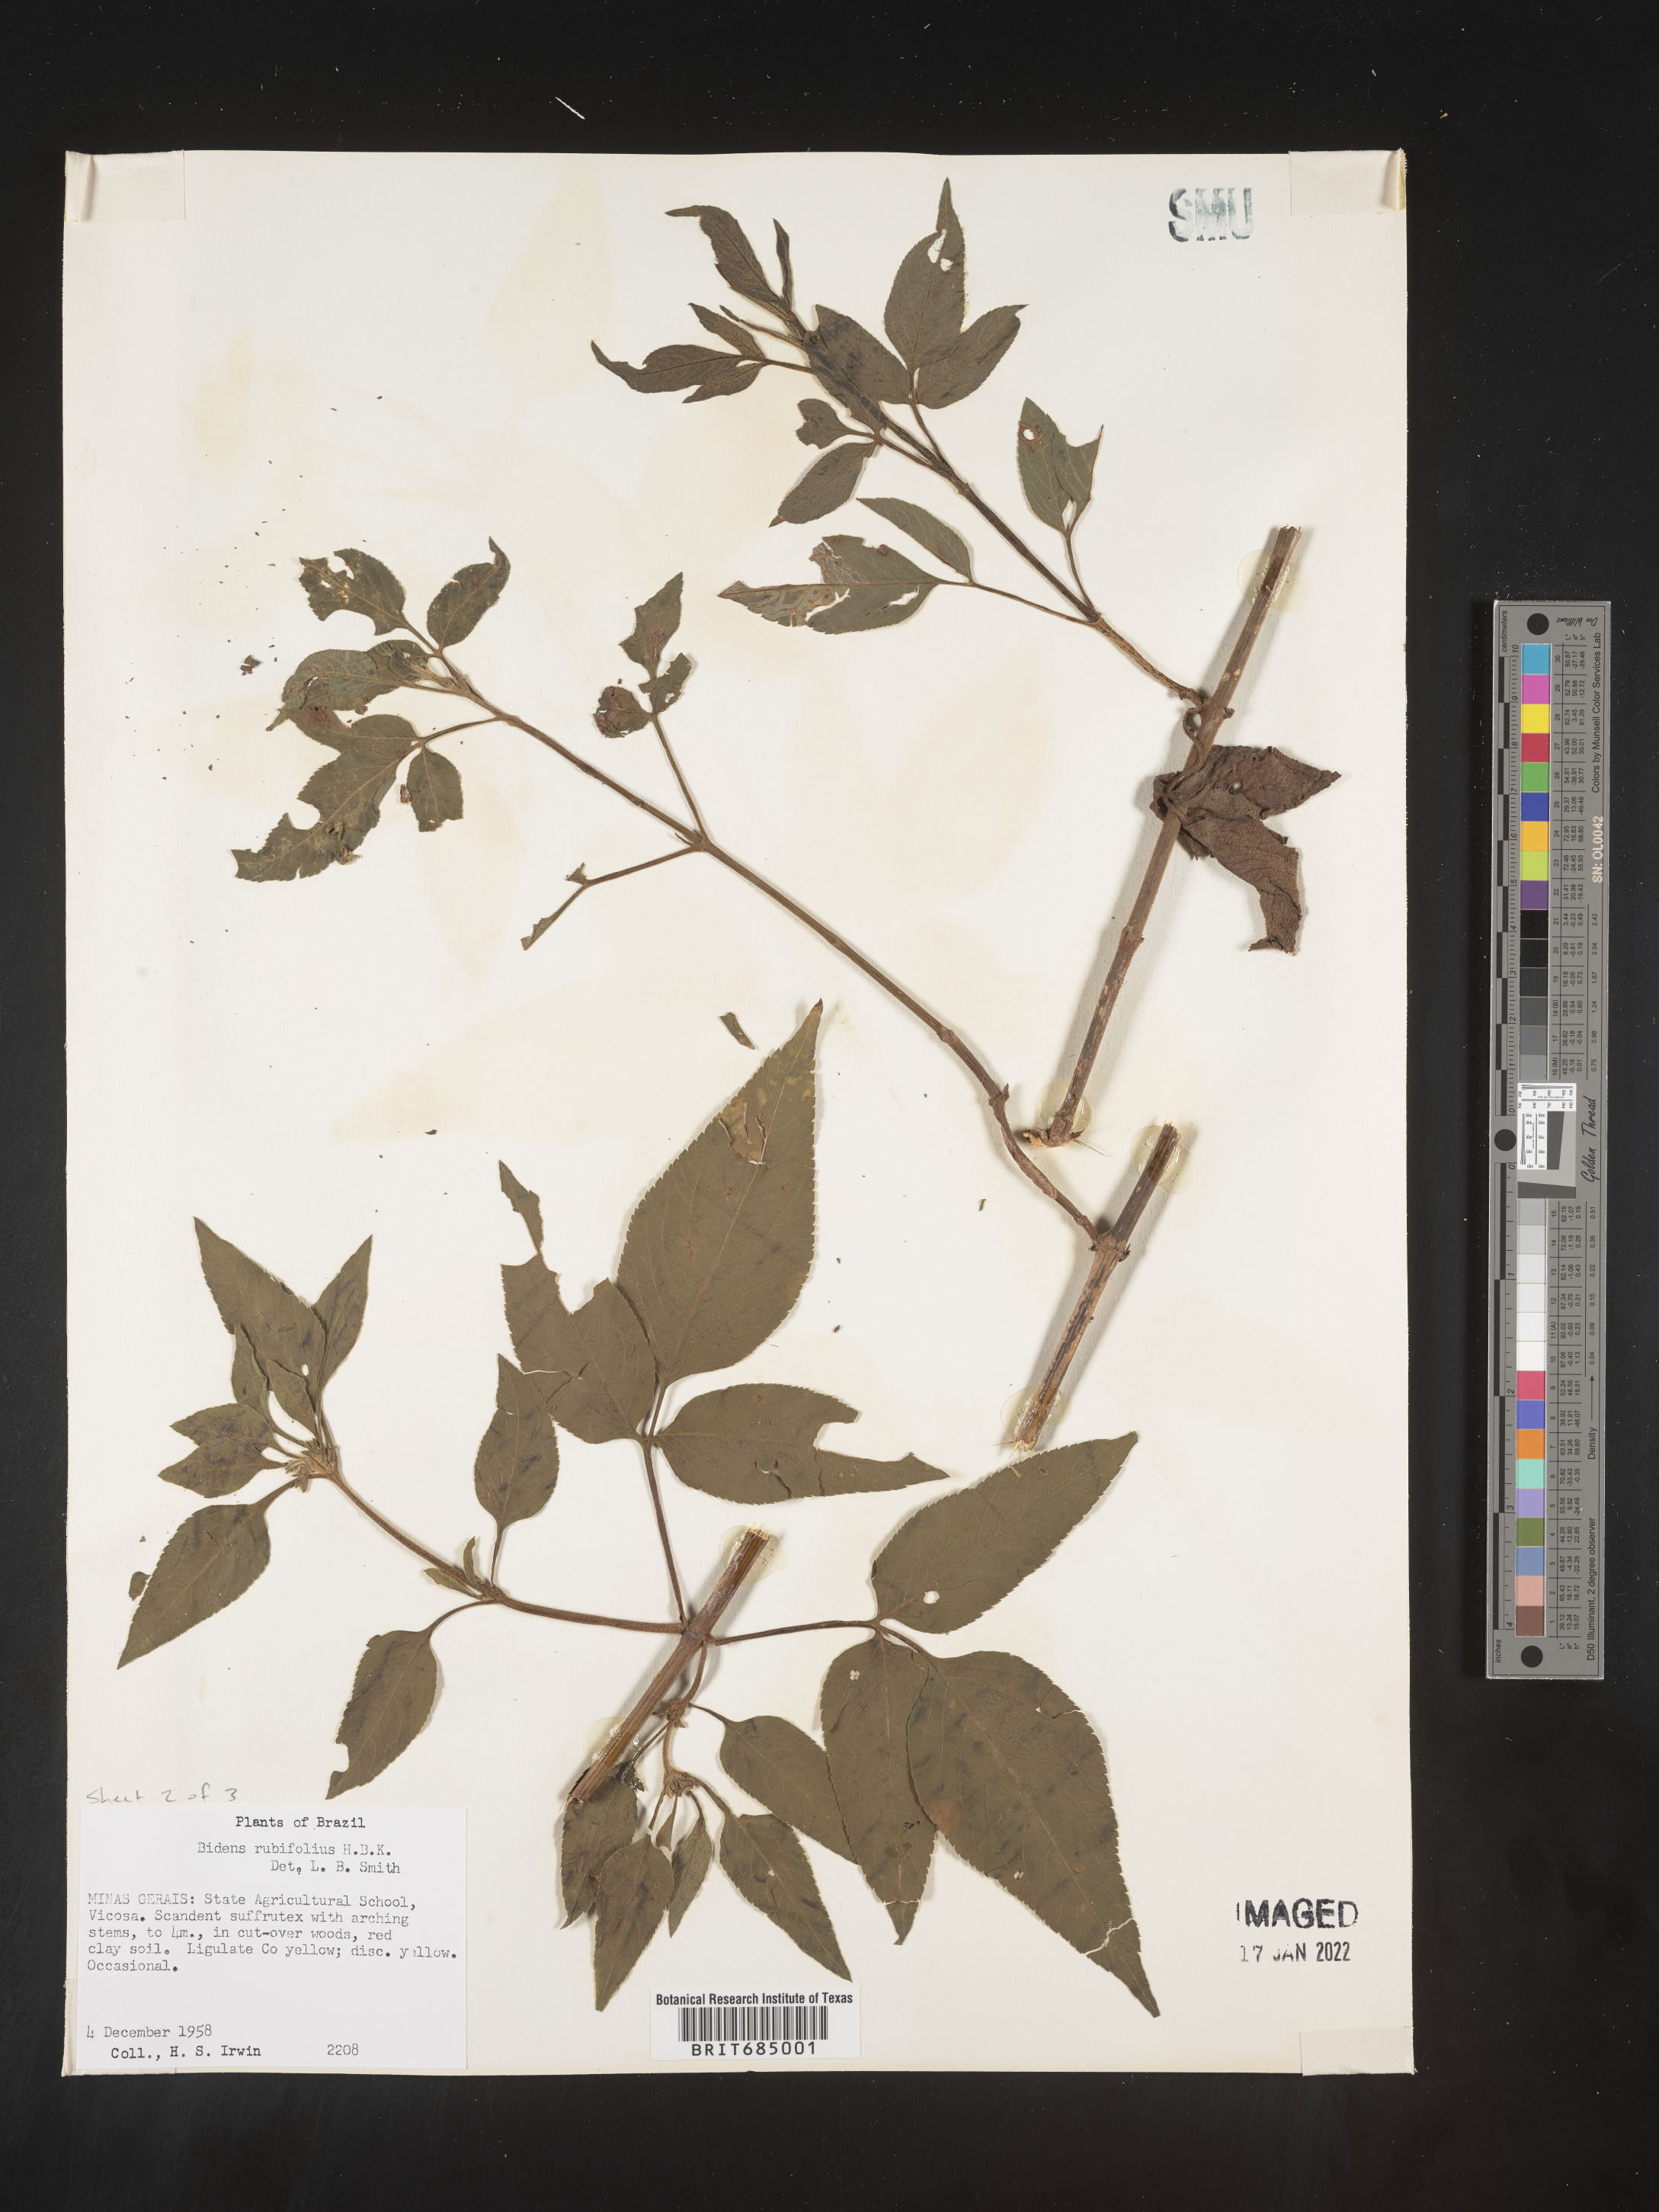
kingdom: Plantae
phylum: Tracheophyta
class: Magnoliopsida
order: Asterales
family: Asteraceae
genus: Bidens
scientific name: Bidens rubifolia
